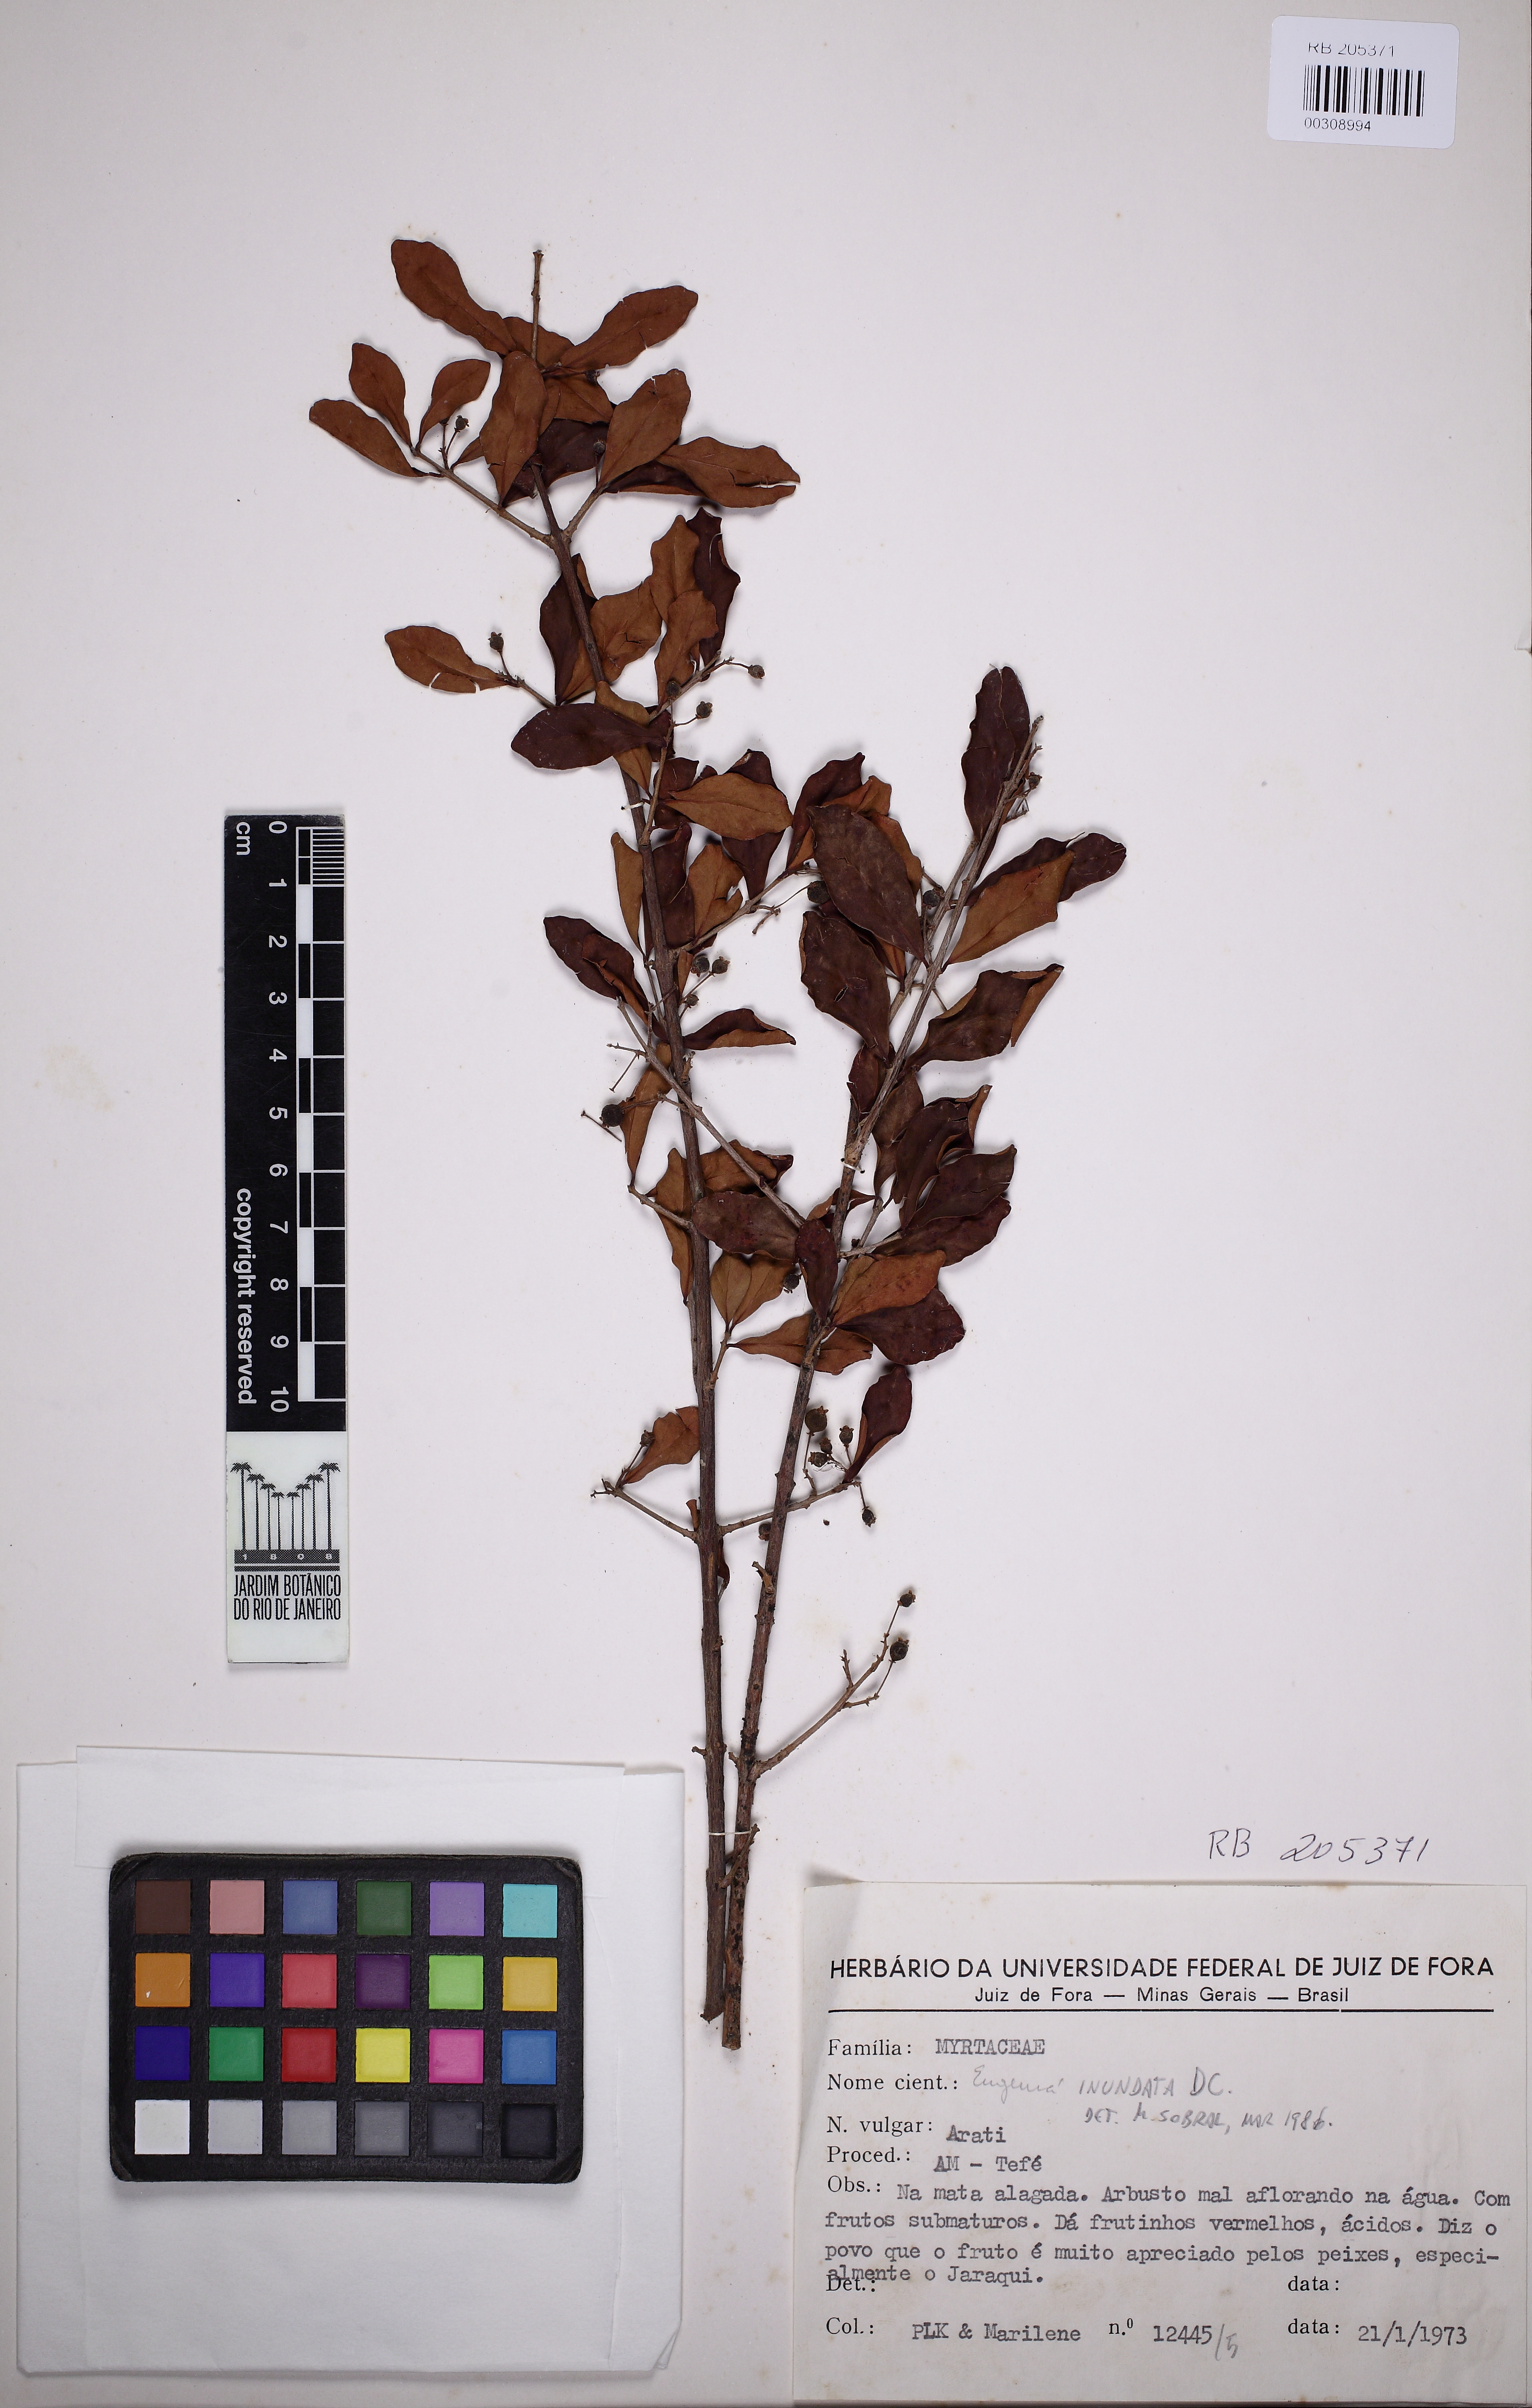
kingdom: Plantae
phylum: Tracheophyta
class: Magnoliopsida
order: Myrtales
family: Myrtaceae
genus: Eugenia
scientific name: Eugenia inundata
